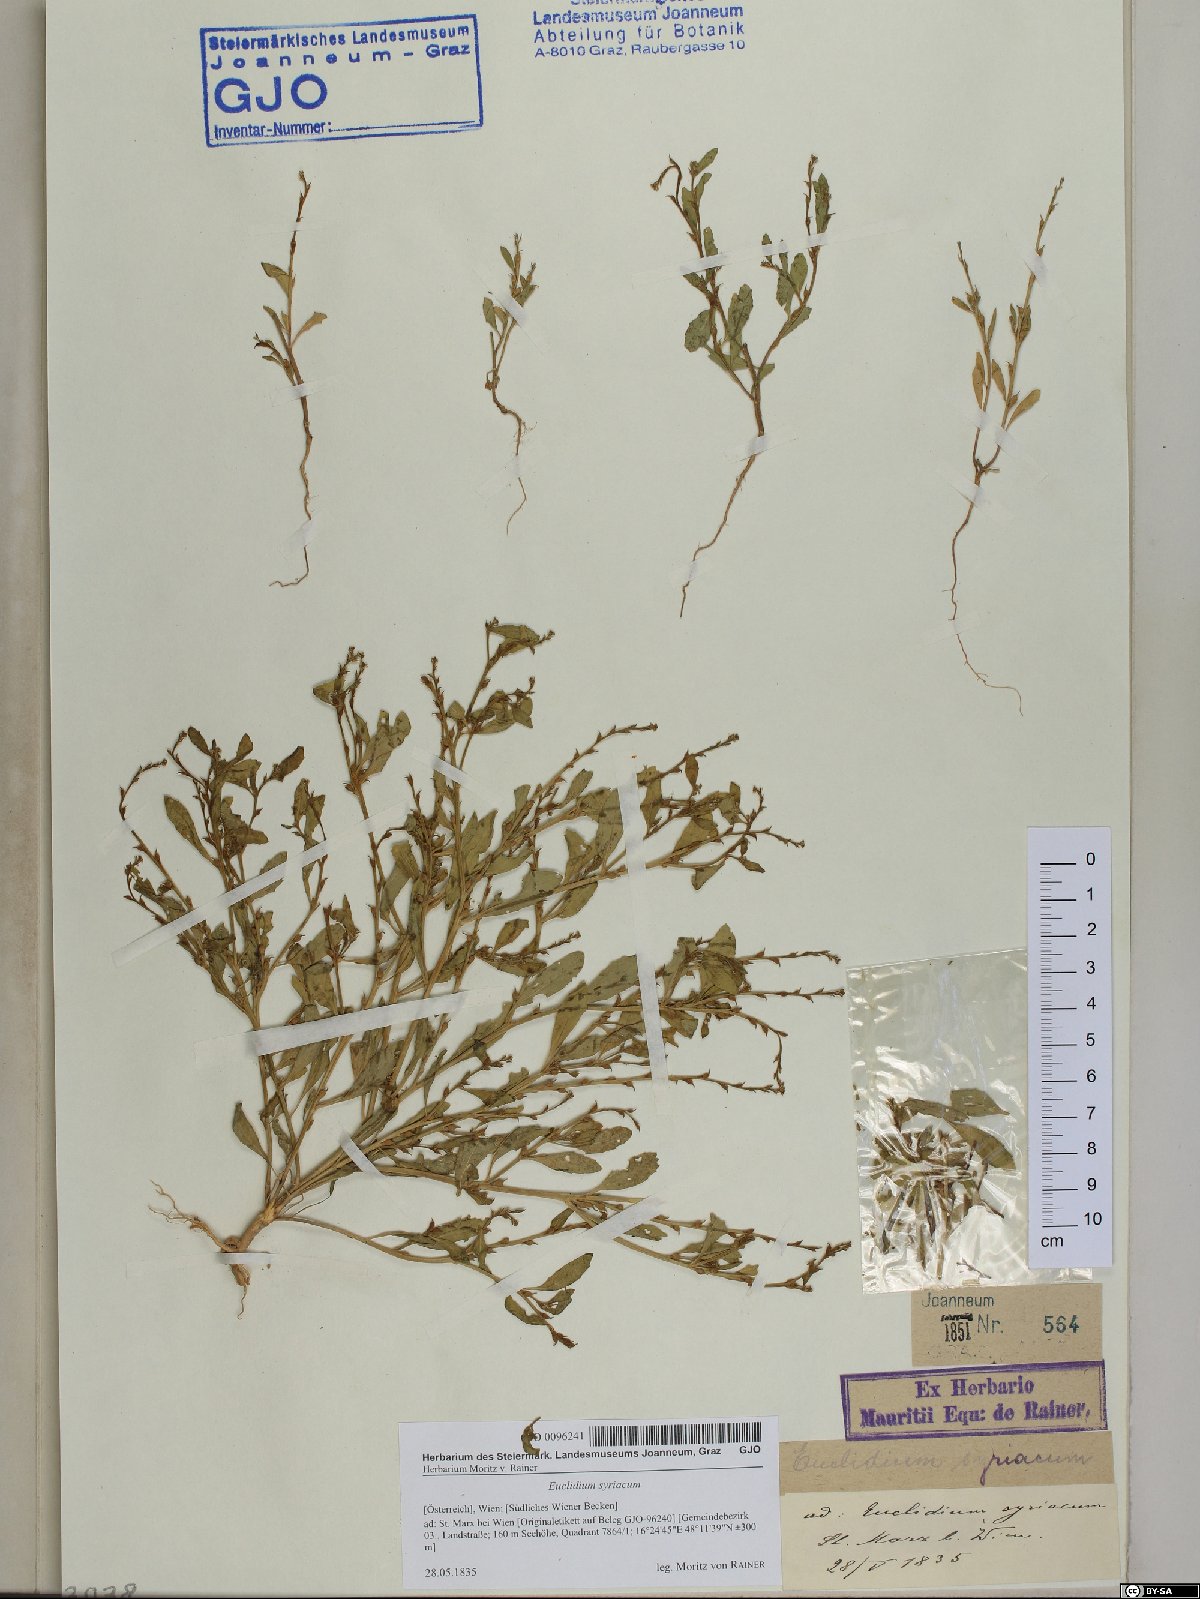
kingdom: Plantae
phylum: Tracheophyta
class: Magnoliopsida
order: Brassicales
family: Brassicaceae
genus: Euclidium
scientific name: Euclidium syriacum
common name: Syrian mustard
